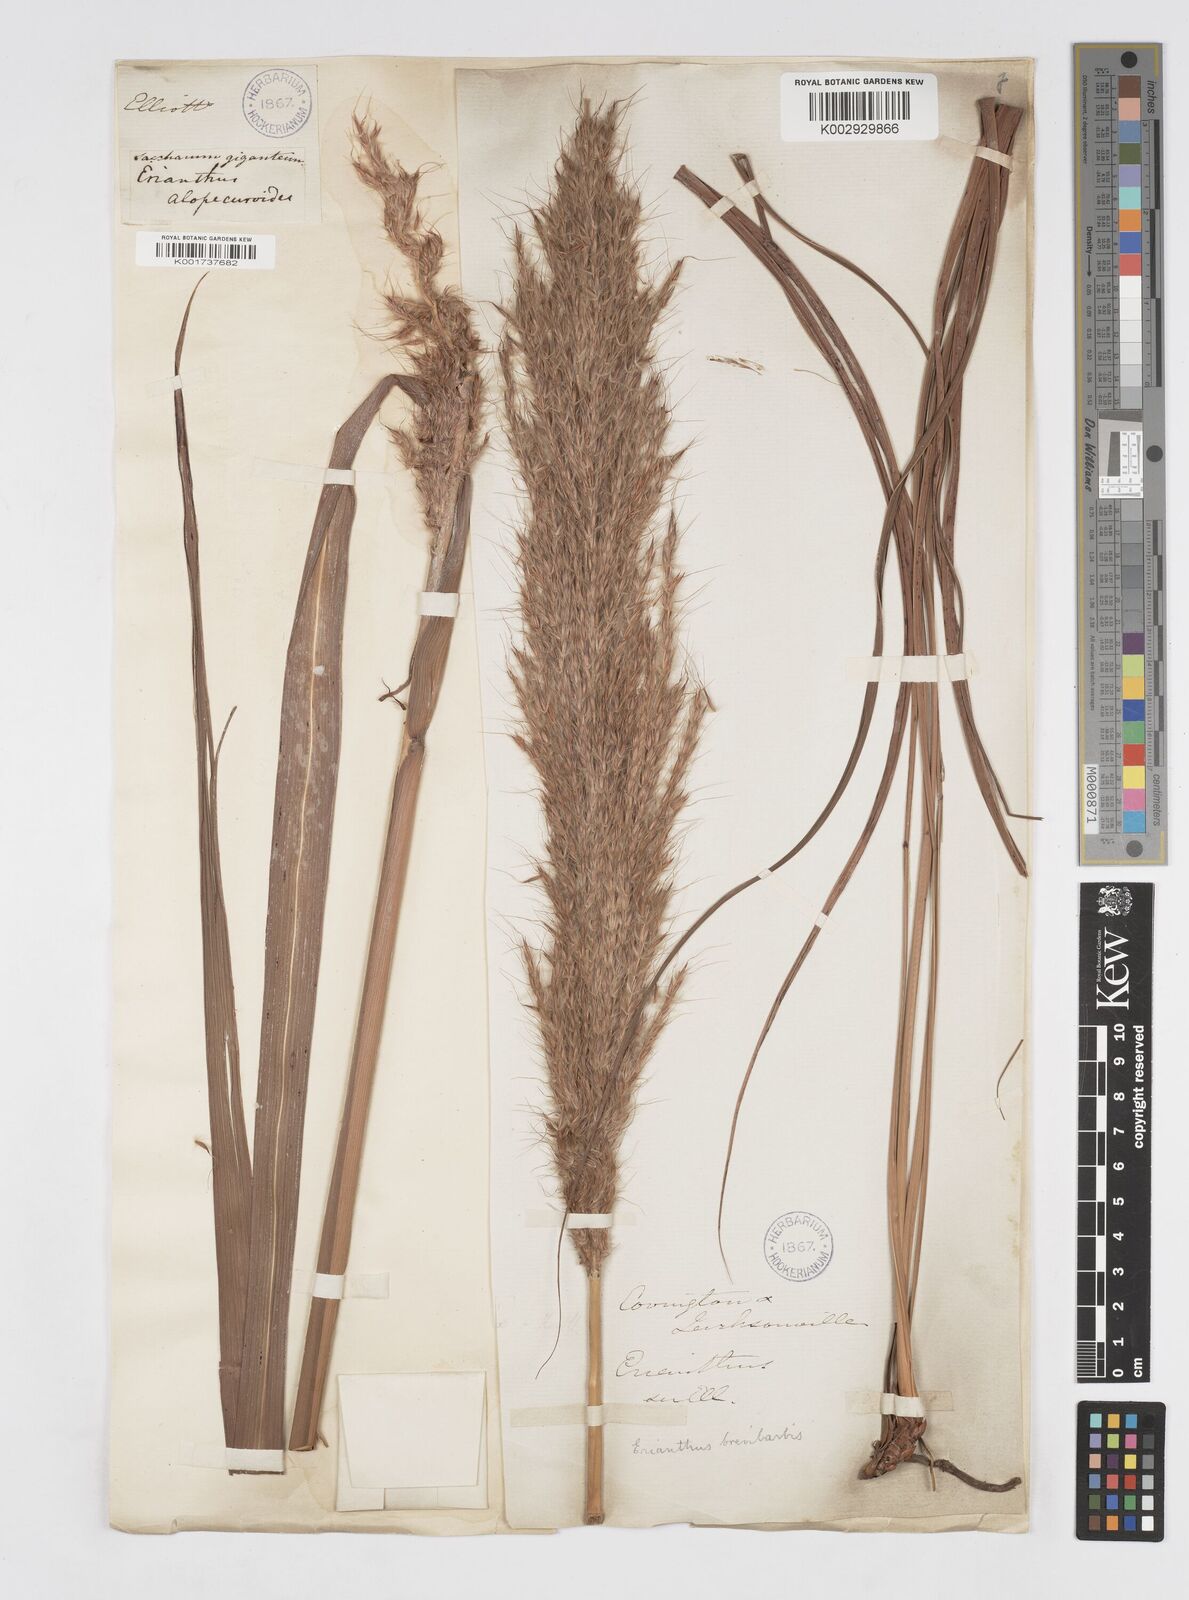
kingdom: Plantae
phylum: Tracheophyta
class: Liliopsida
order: Poales
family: Poaceae
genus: Erianthus
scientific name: Erianthus contortus
